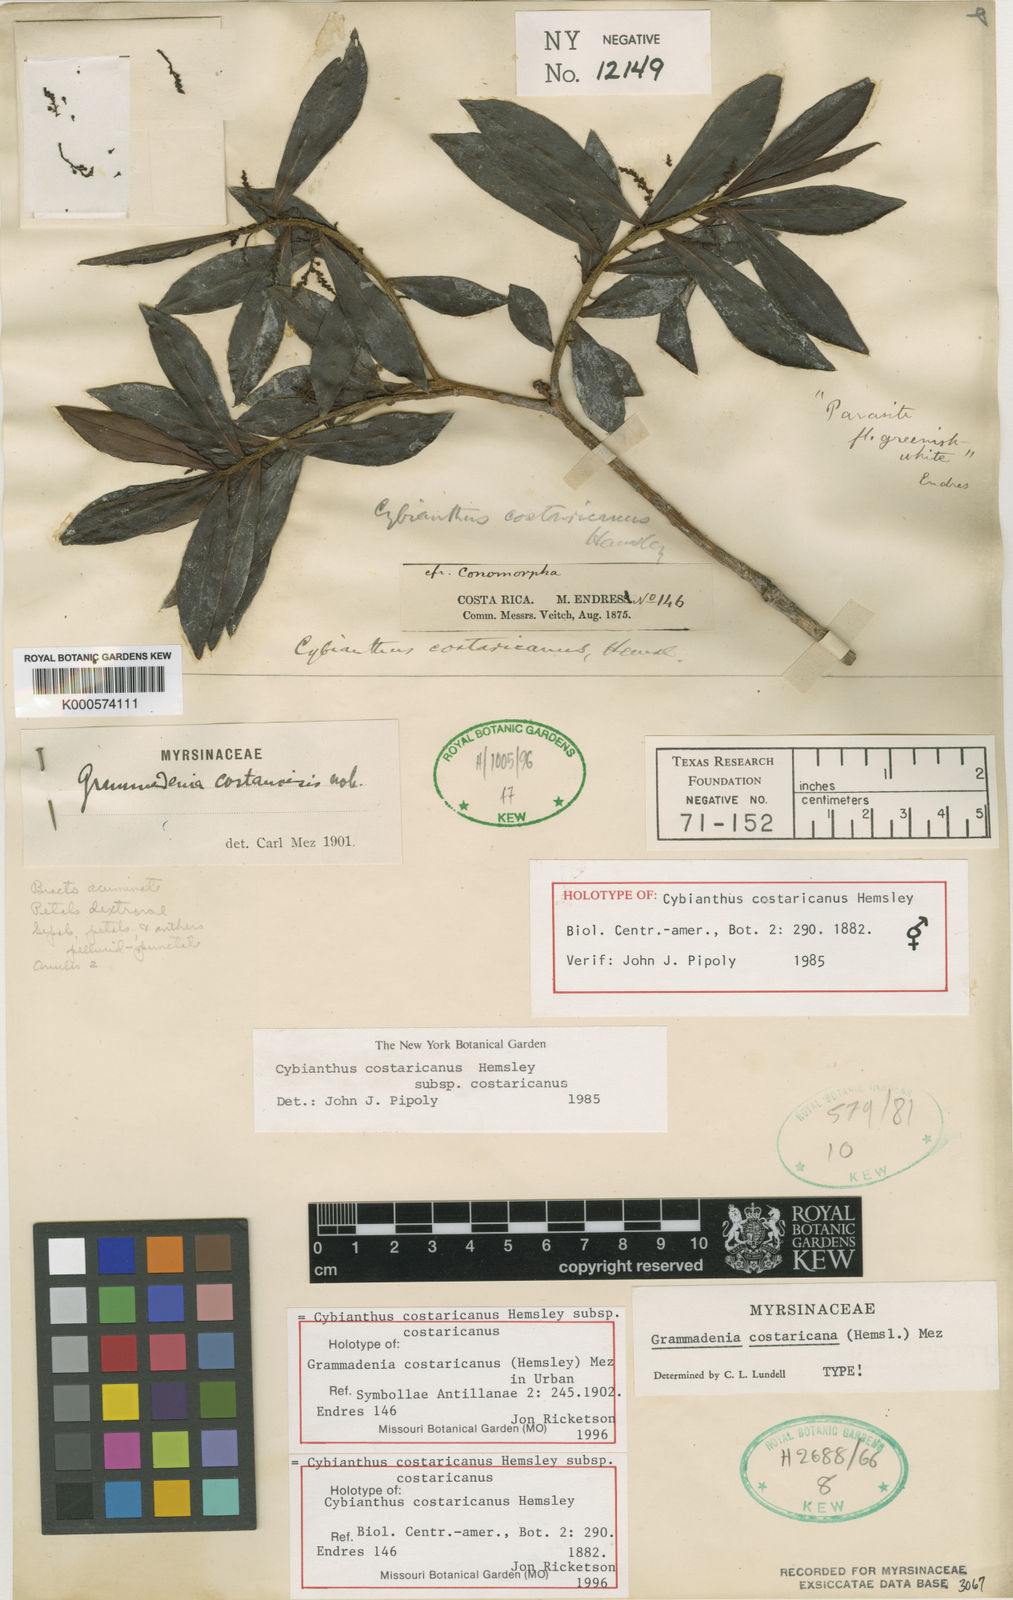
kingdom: Plantae
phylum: Tracheophyta
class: Magnoliopsida
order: Ericales
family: Primulaceae
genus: Cybianthus
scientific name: Cybianthus costaricanus
